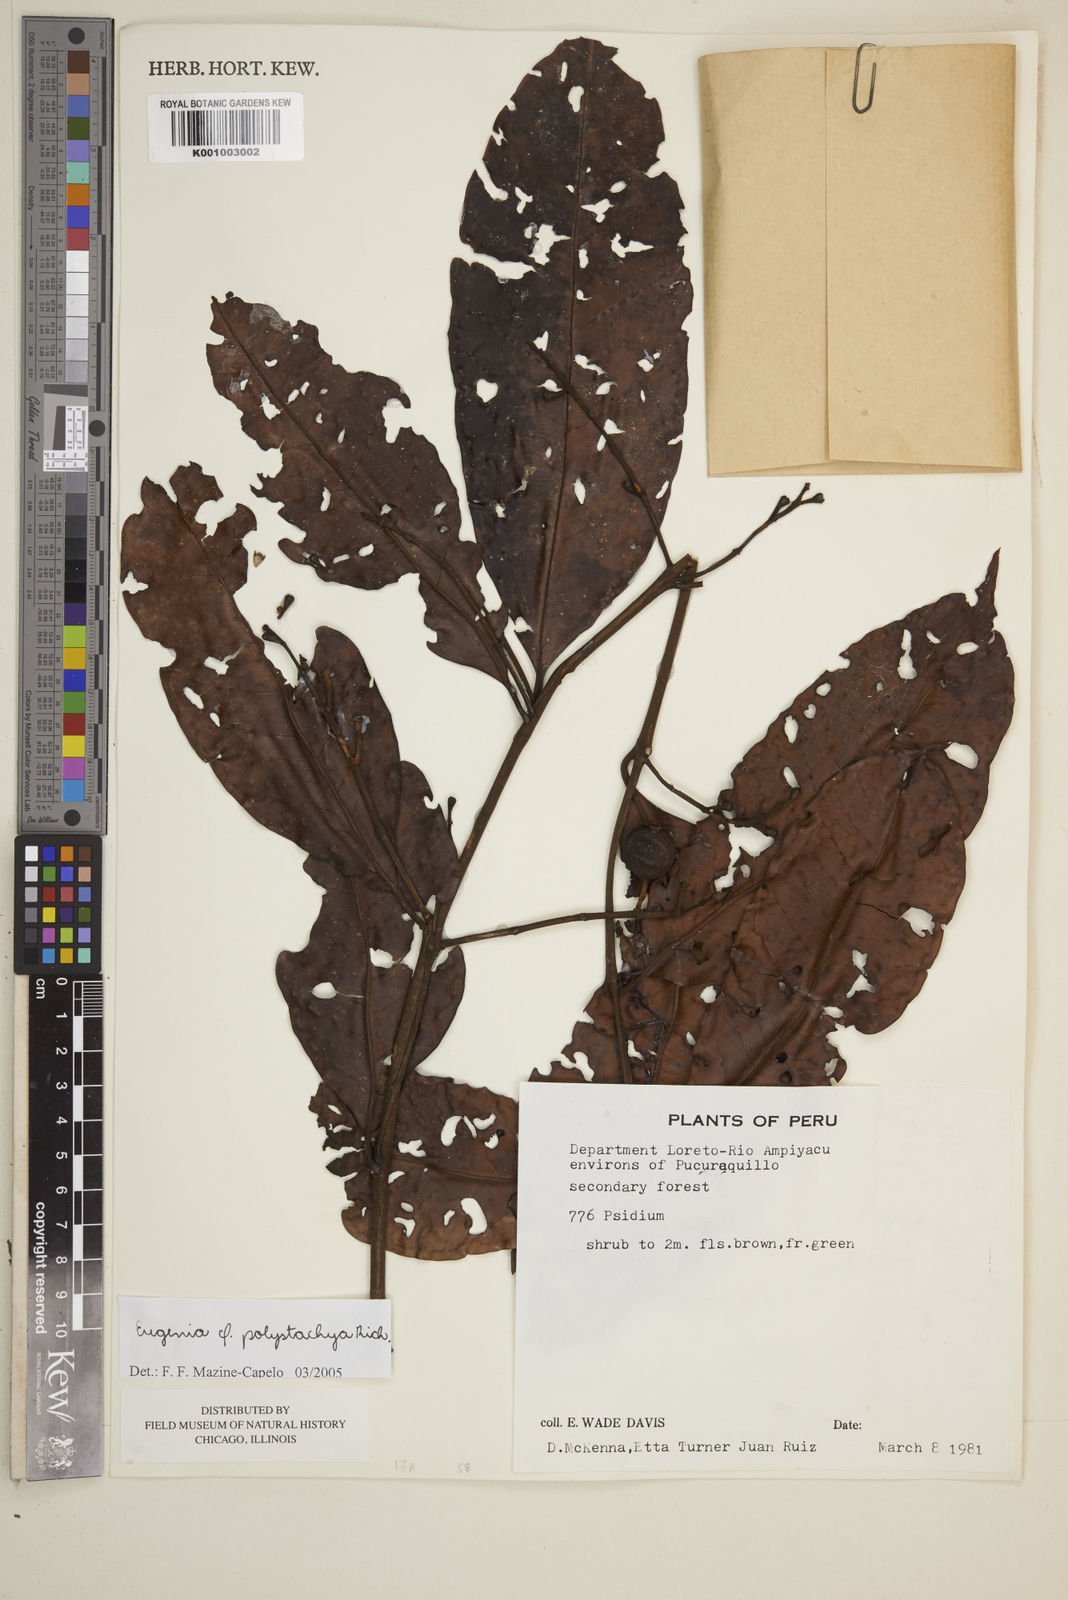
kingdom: Plantae
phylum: Tracheophyta
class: Magnoliopsida
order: Myrtales
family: Myrtaceae
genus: Eugenia
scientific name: Eugenia polystachya
